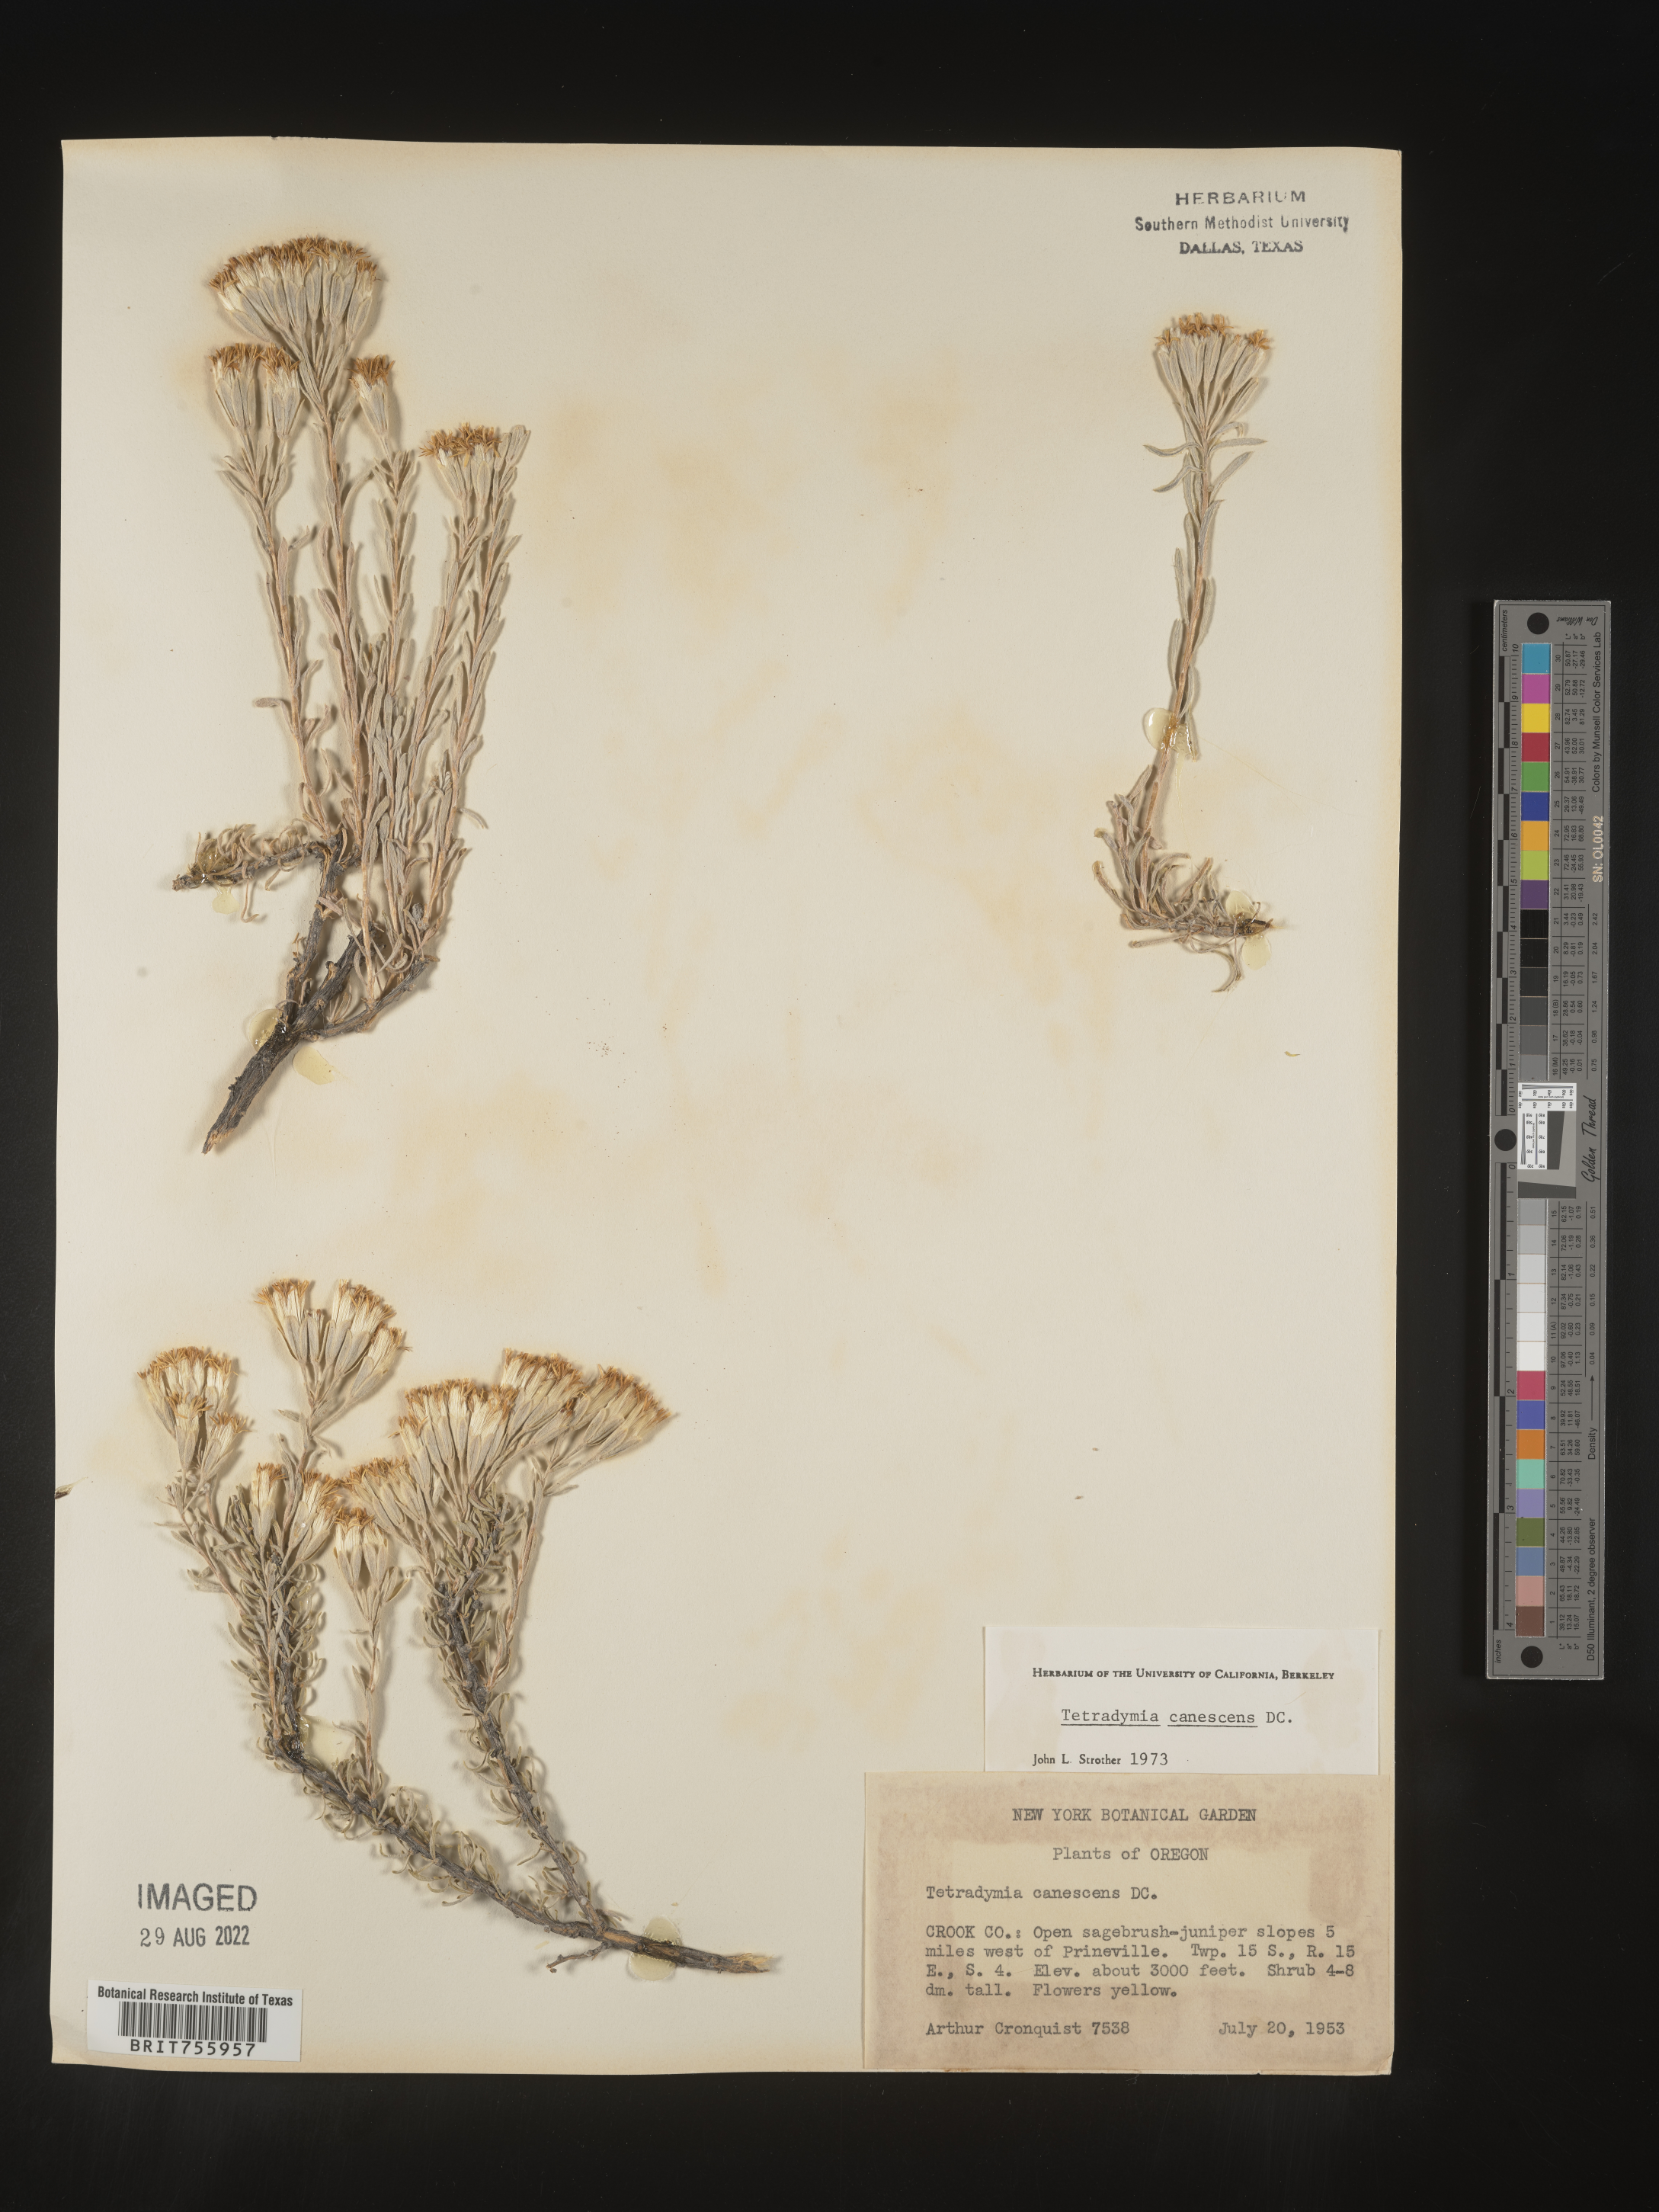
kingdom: Plantae
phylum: Tracheophyta
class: Magnoliopsida
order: Asterales
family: Asteraceae
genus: Tetradymia
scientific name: Tetradymia canescens
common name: Spineless horsebrush
